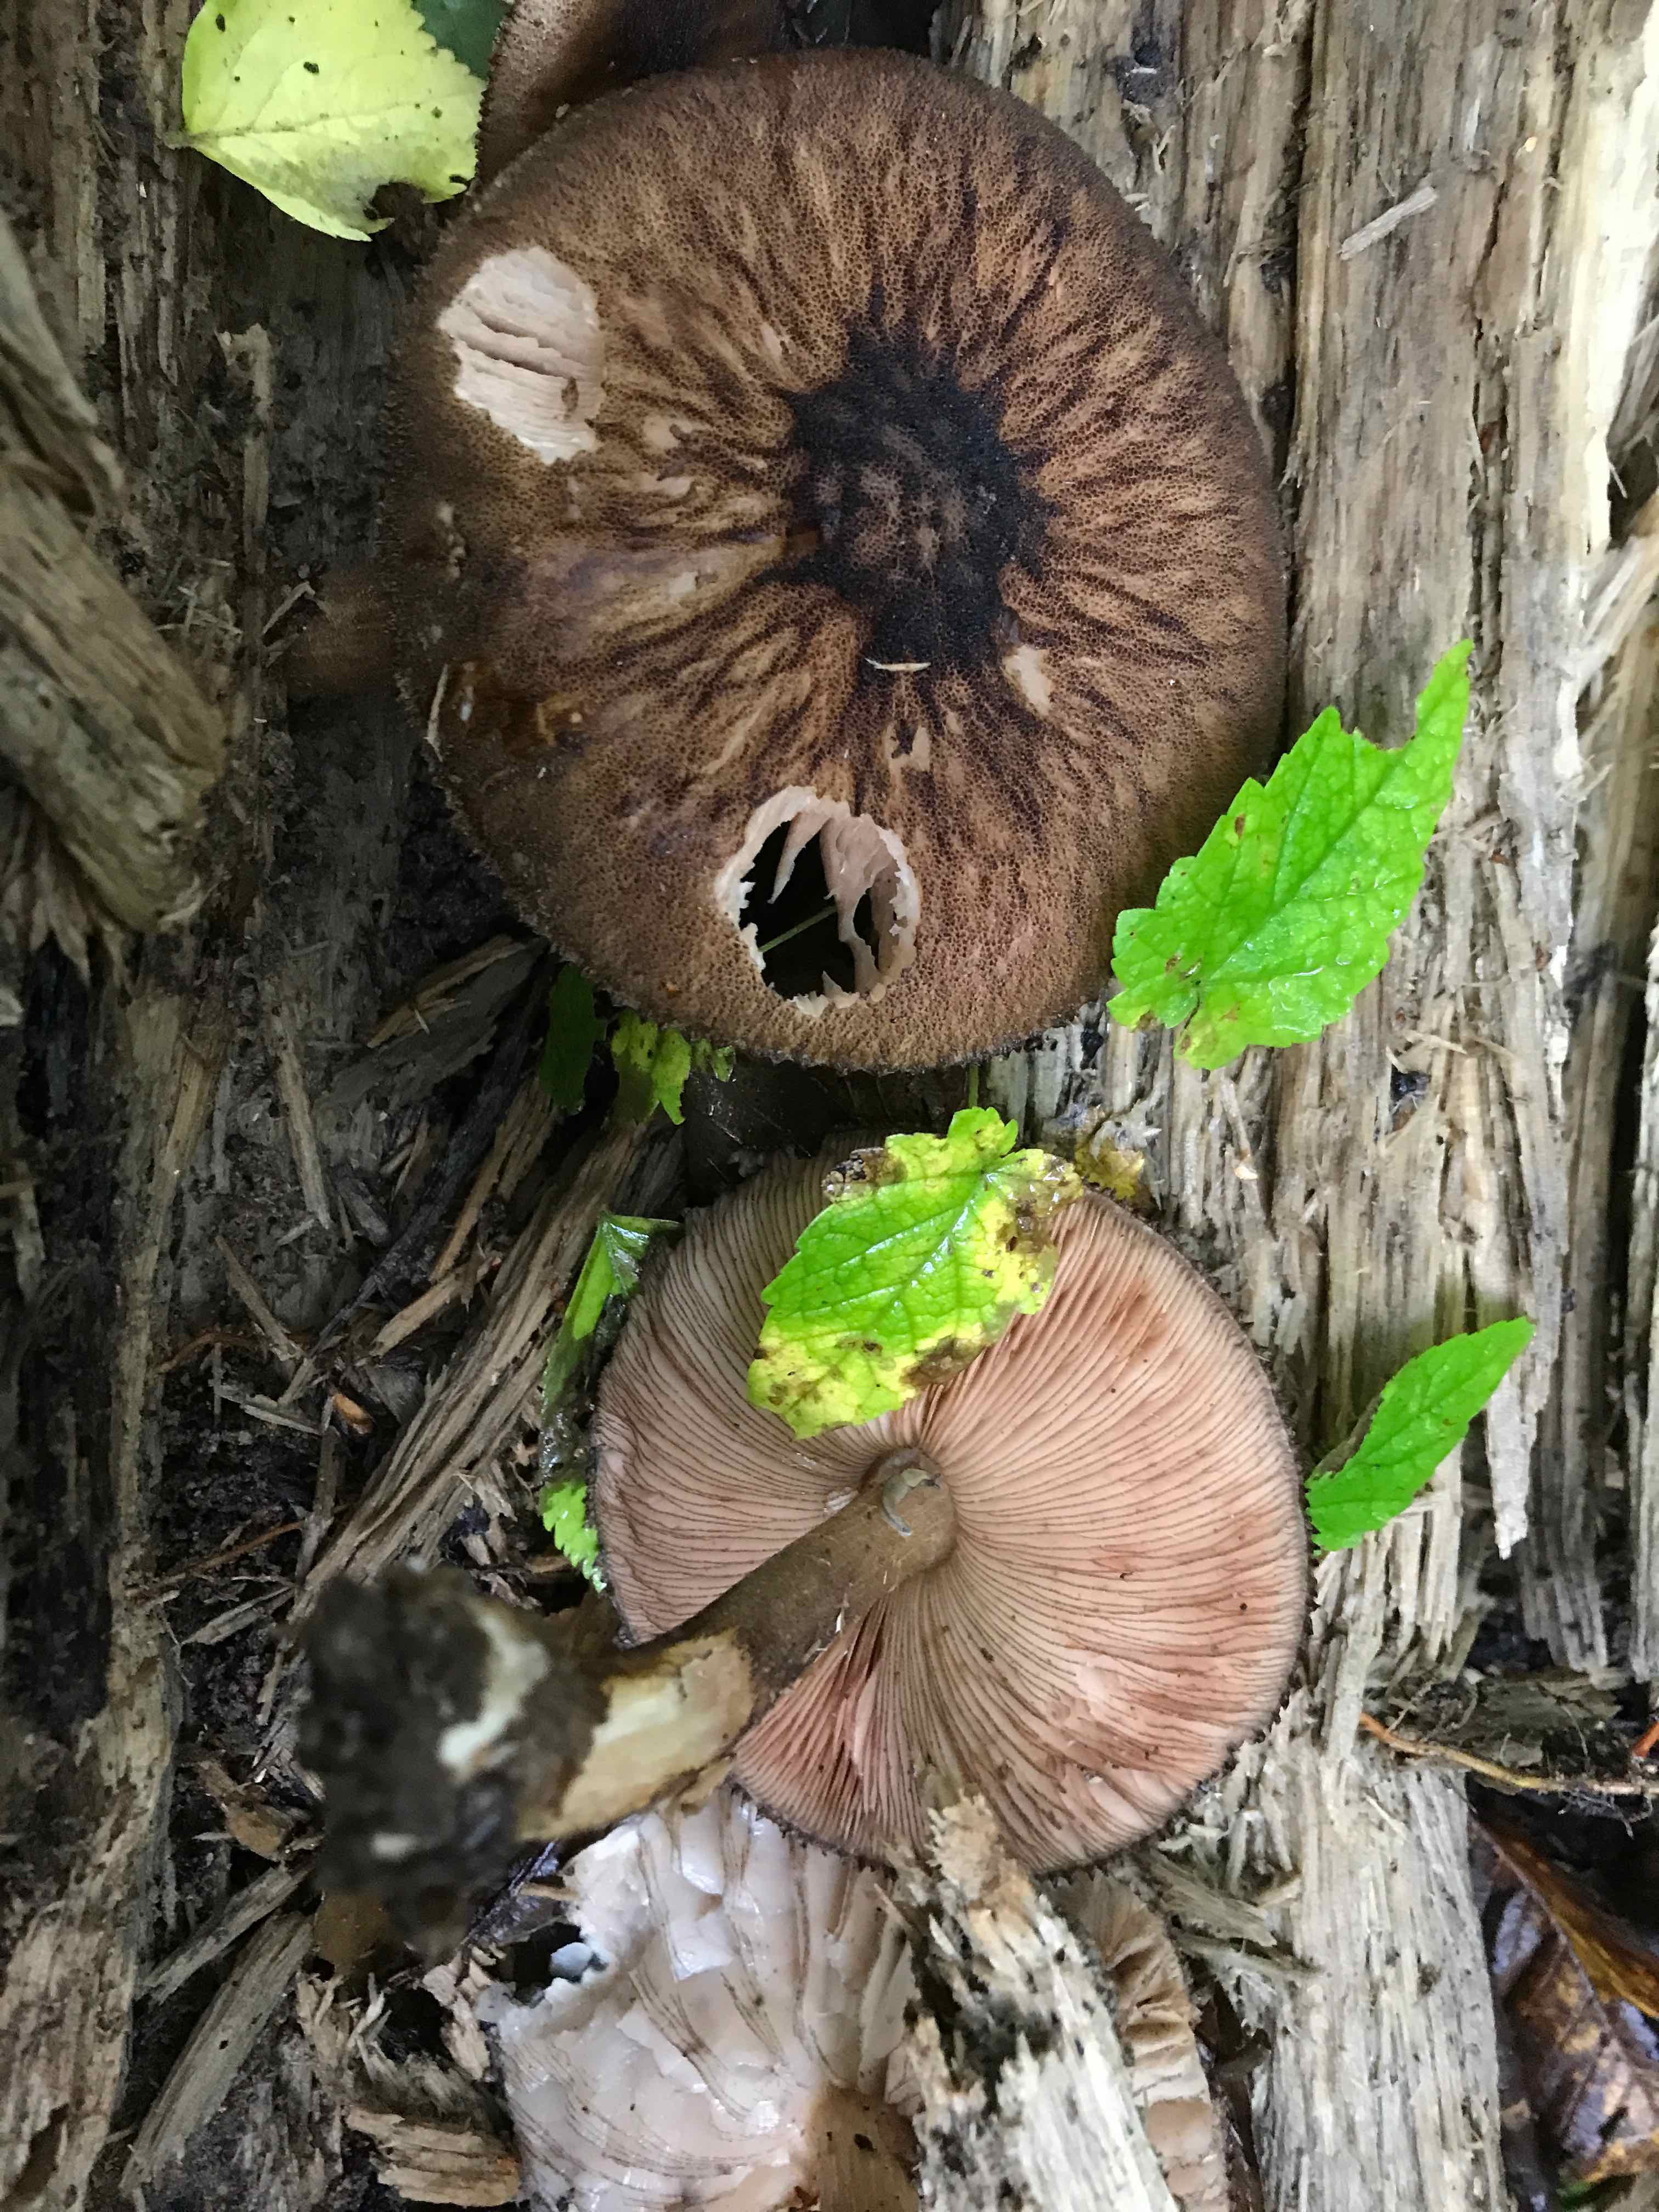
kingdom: Fungi
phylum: Basidiomycota
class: Agaricomycetes
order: Agaricales
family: Pluteaceae
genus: Pluteus
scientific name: Pluteus umbrosus
